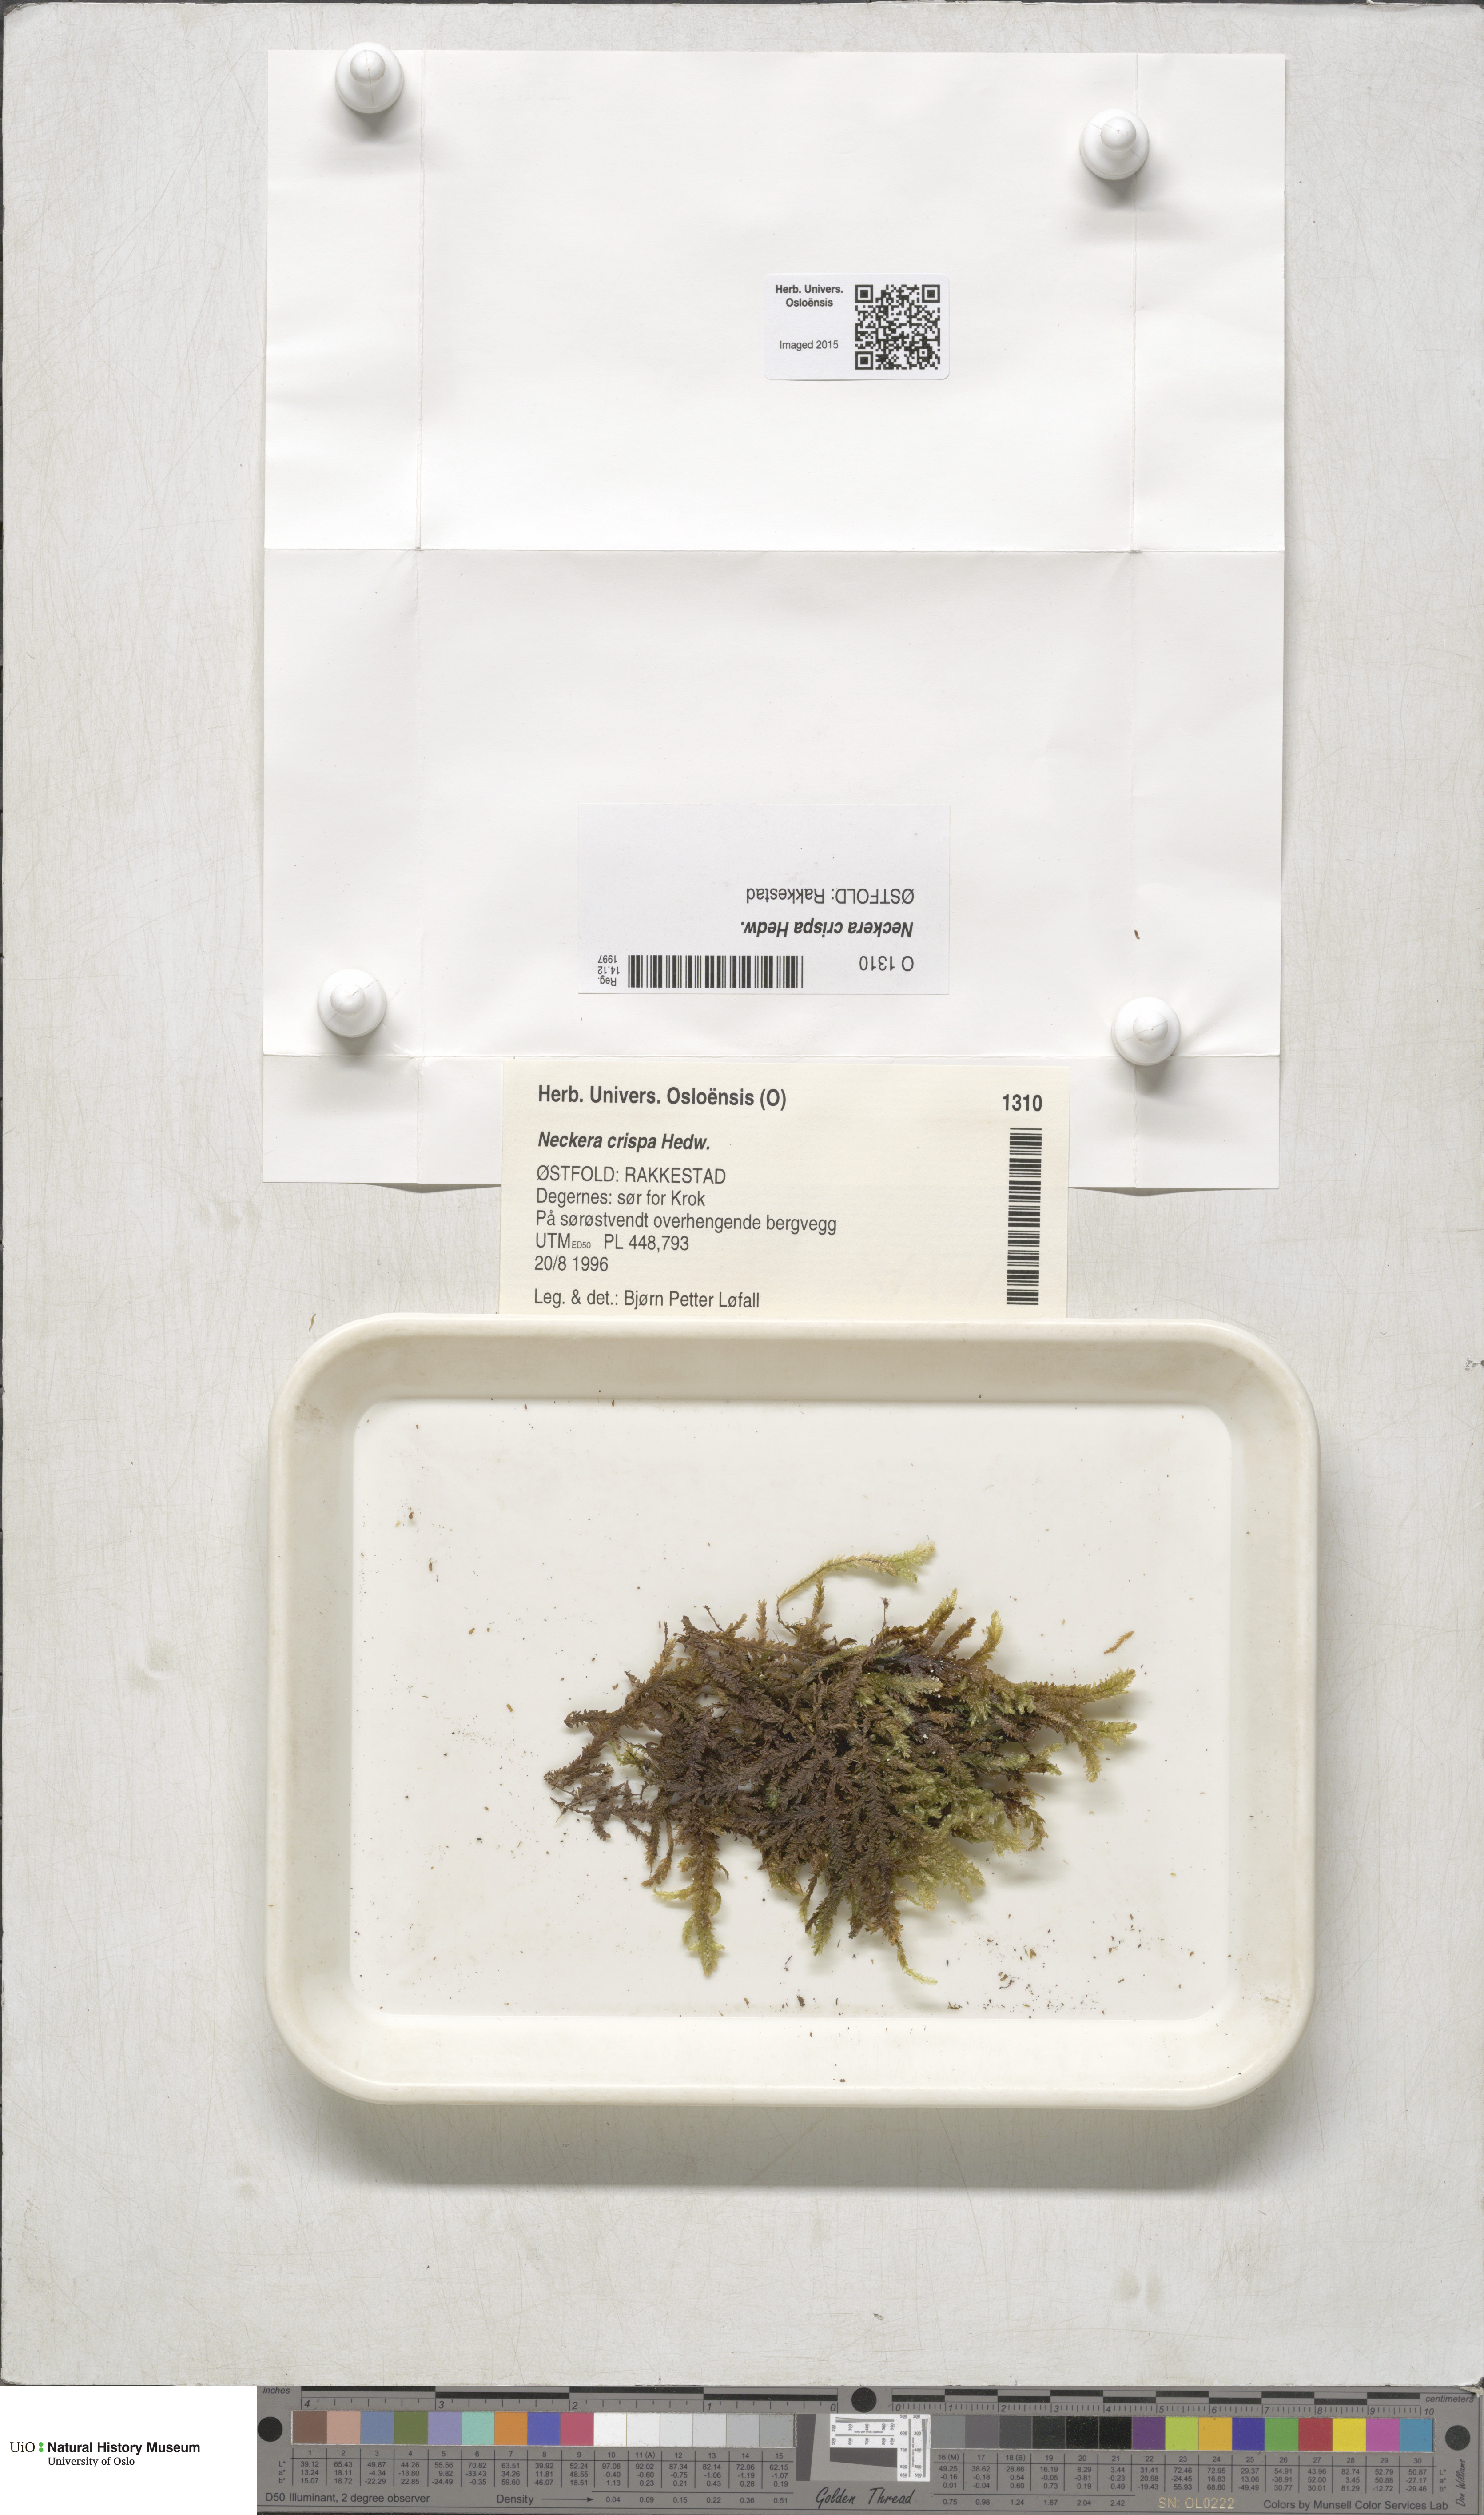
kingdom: Plantae
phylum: Bryophyta
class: Bryopsida
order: Hypnales
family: Neckeraceae
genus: Exsertotheca
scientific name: Exsertotheca crispa
